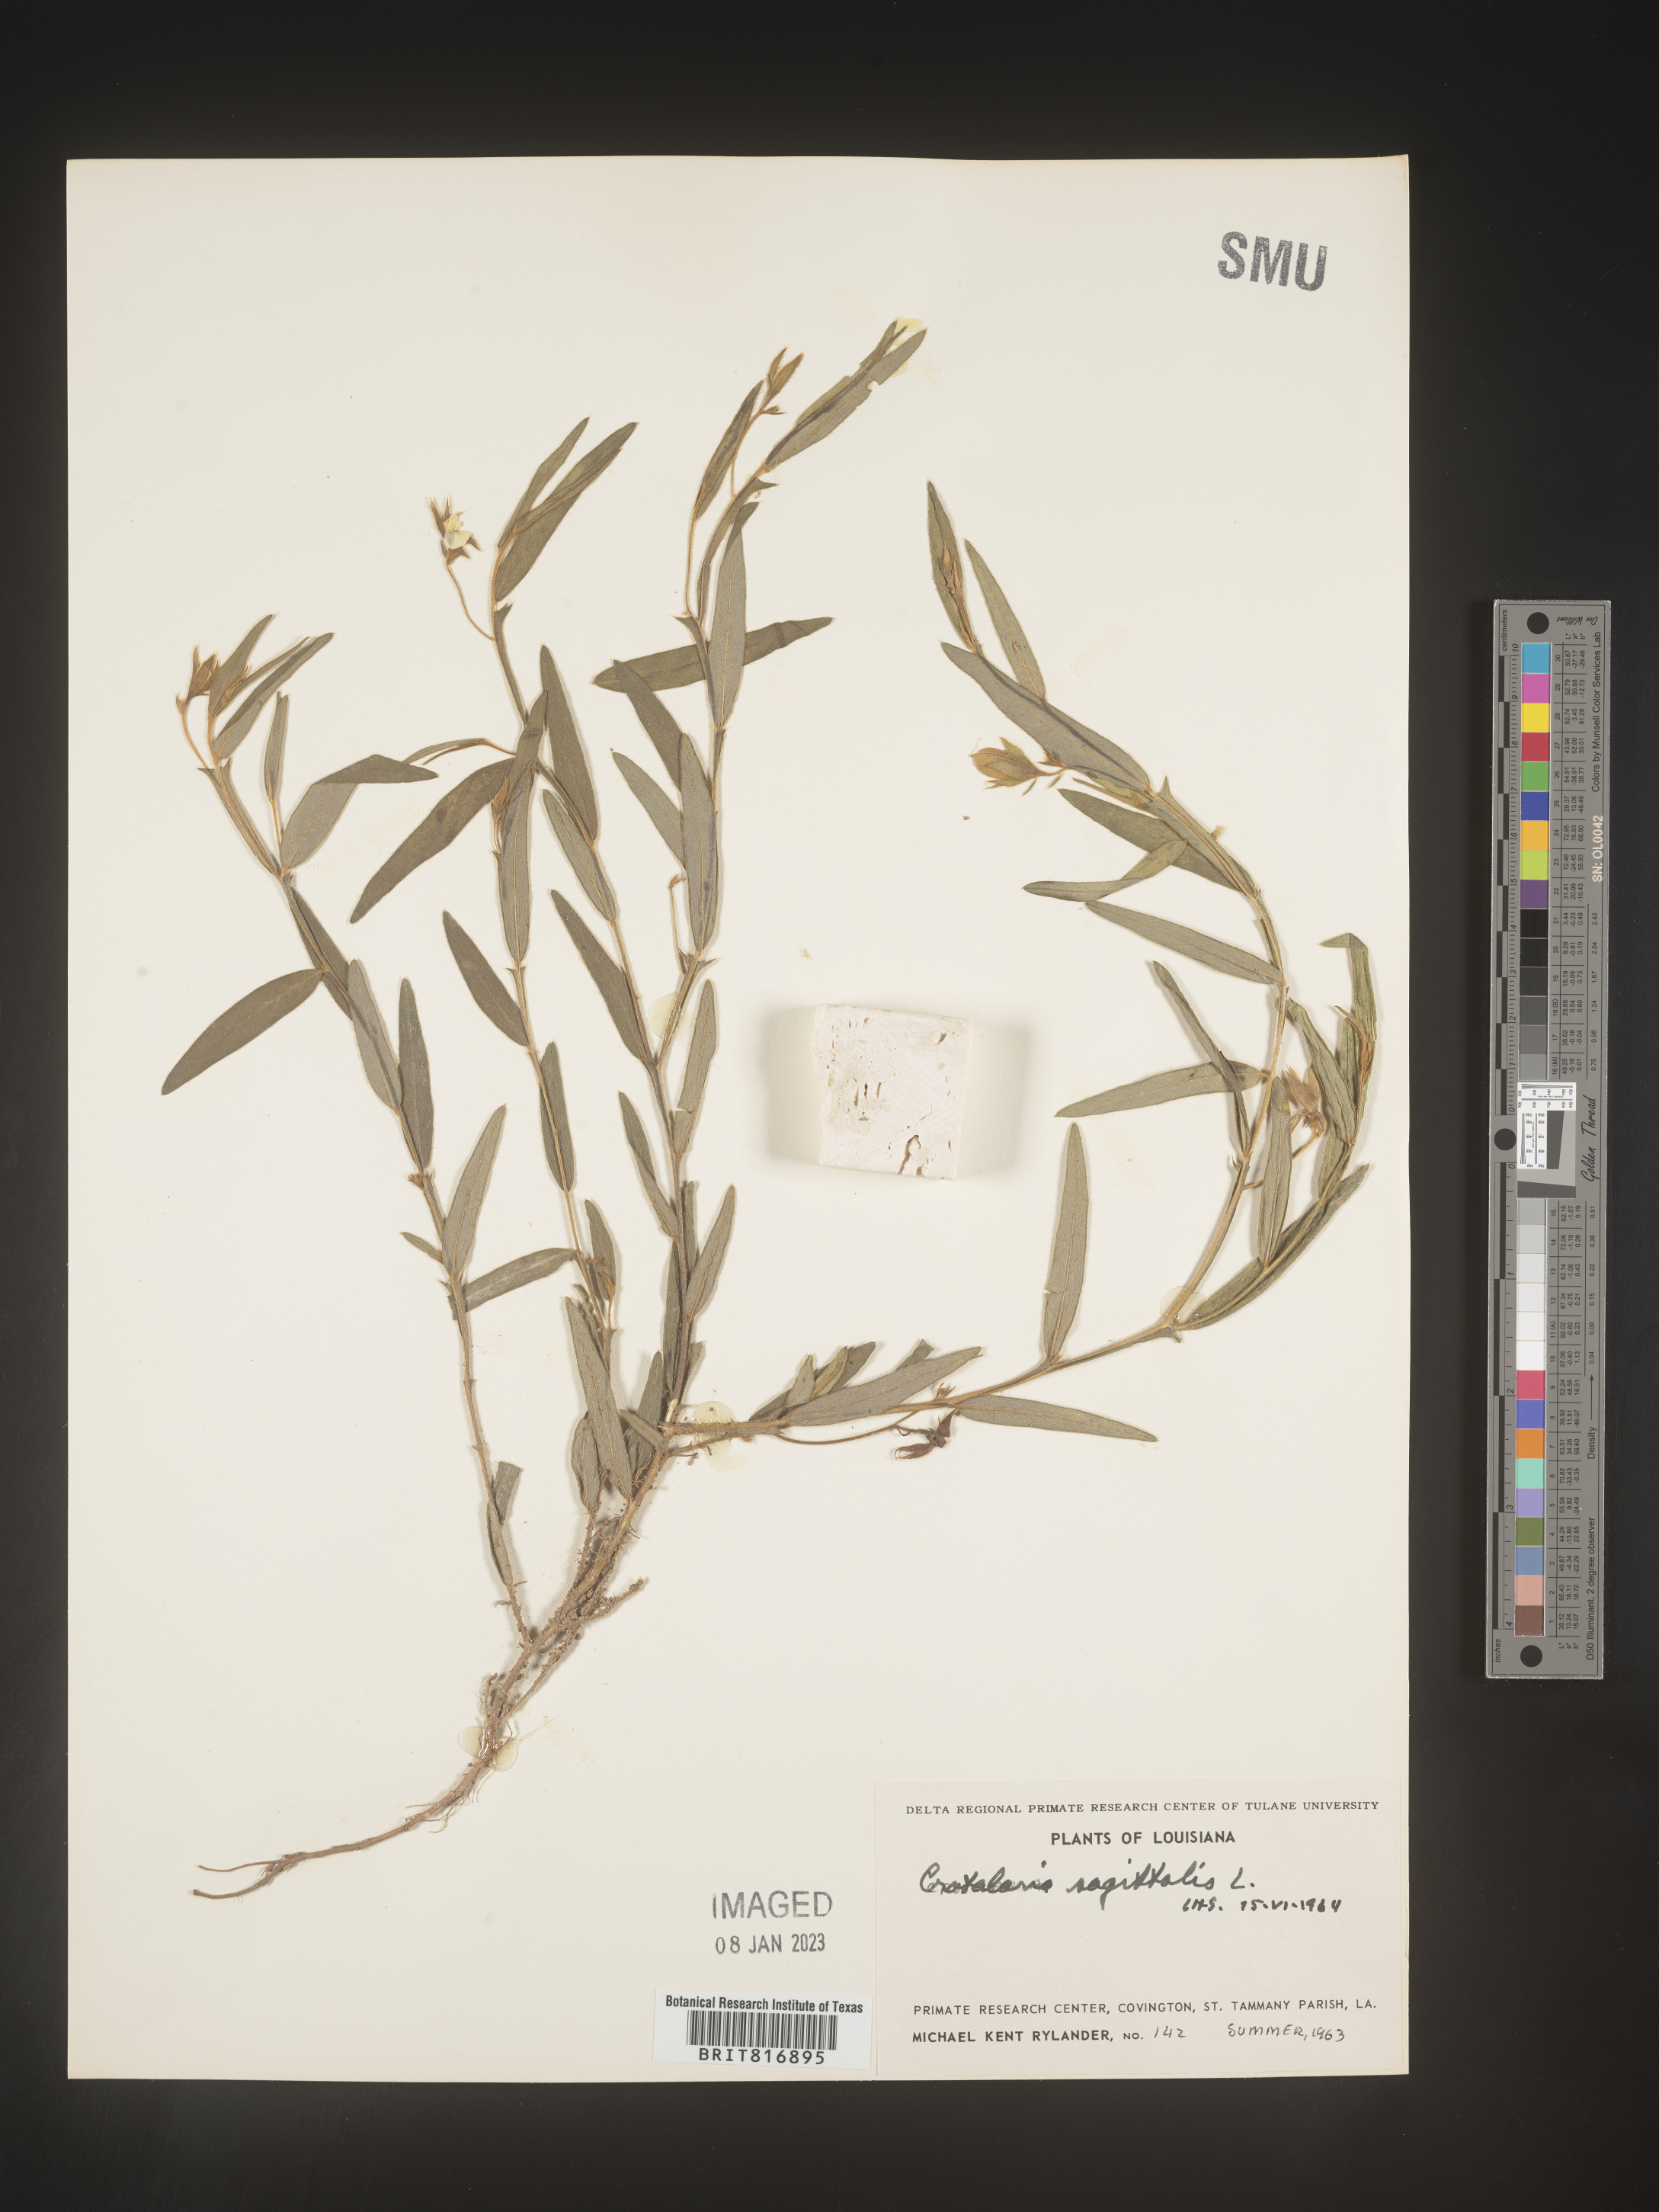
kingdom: Plantae
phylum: Tracheophyta
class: Magnoliopsida
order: Fabales
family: Fabaceae
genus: Crotalaria
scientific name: Crotalaria sagittalis
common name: Arrowhead rattlebox
